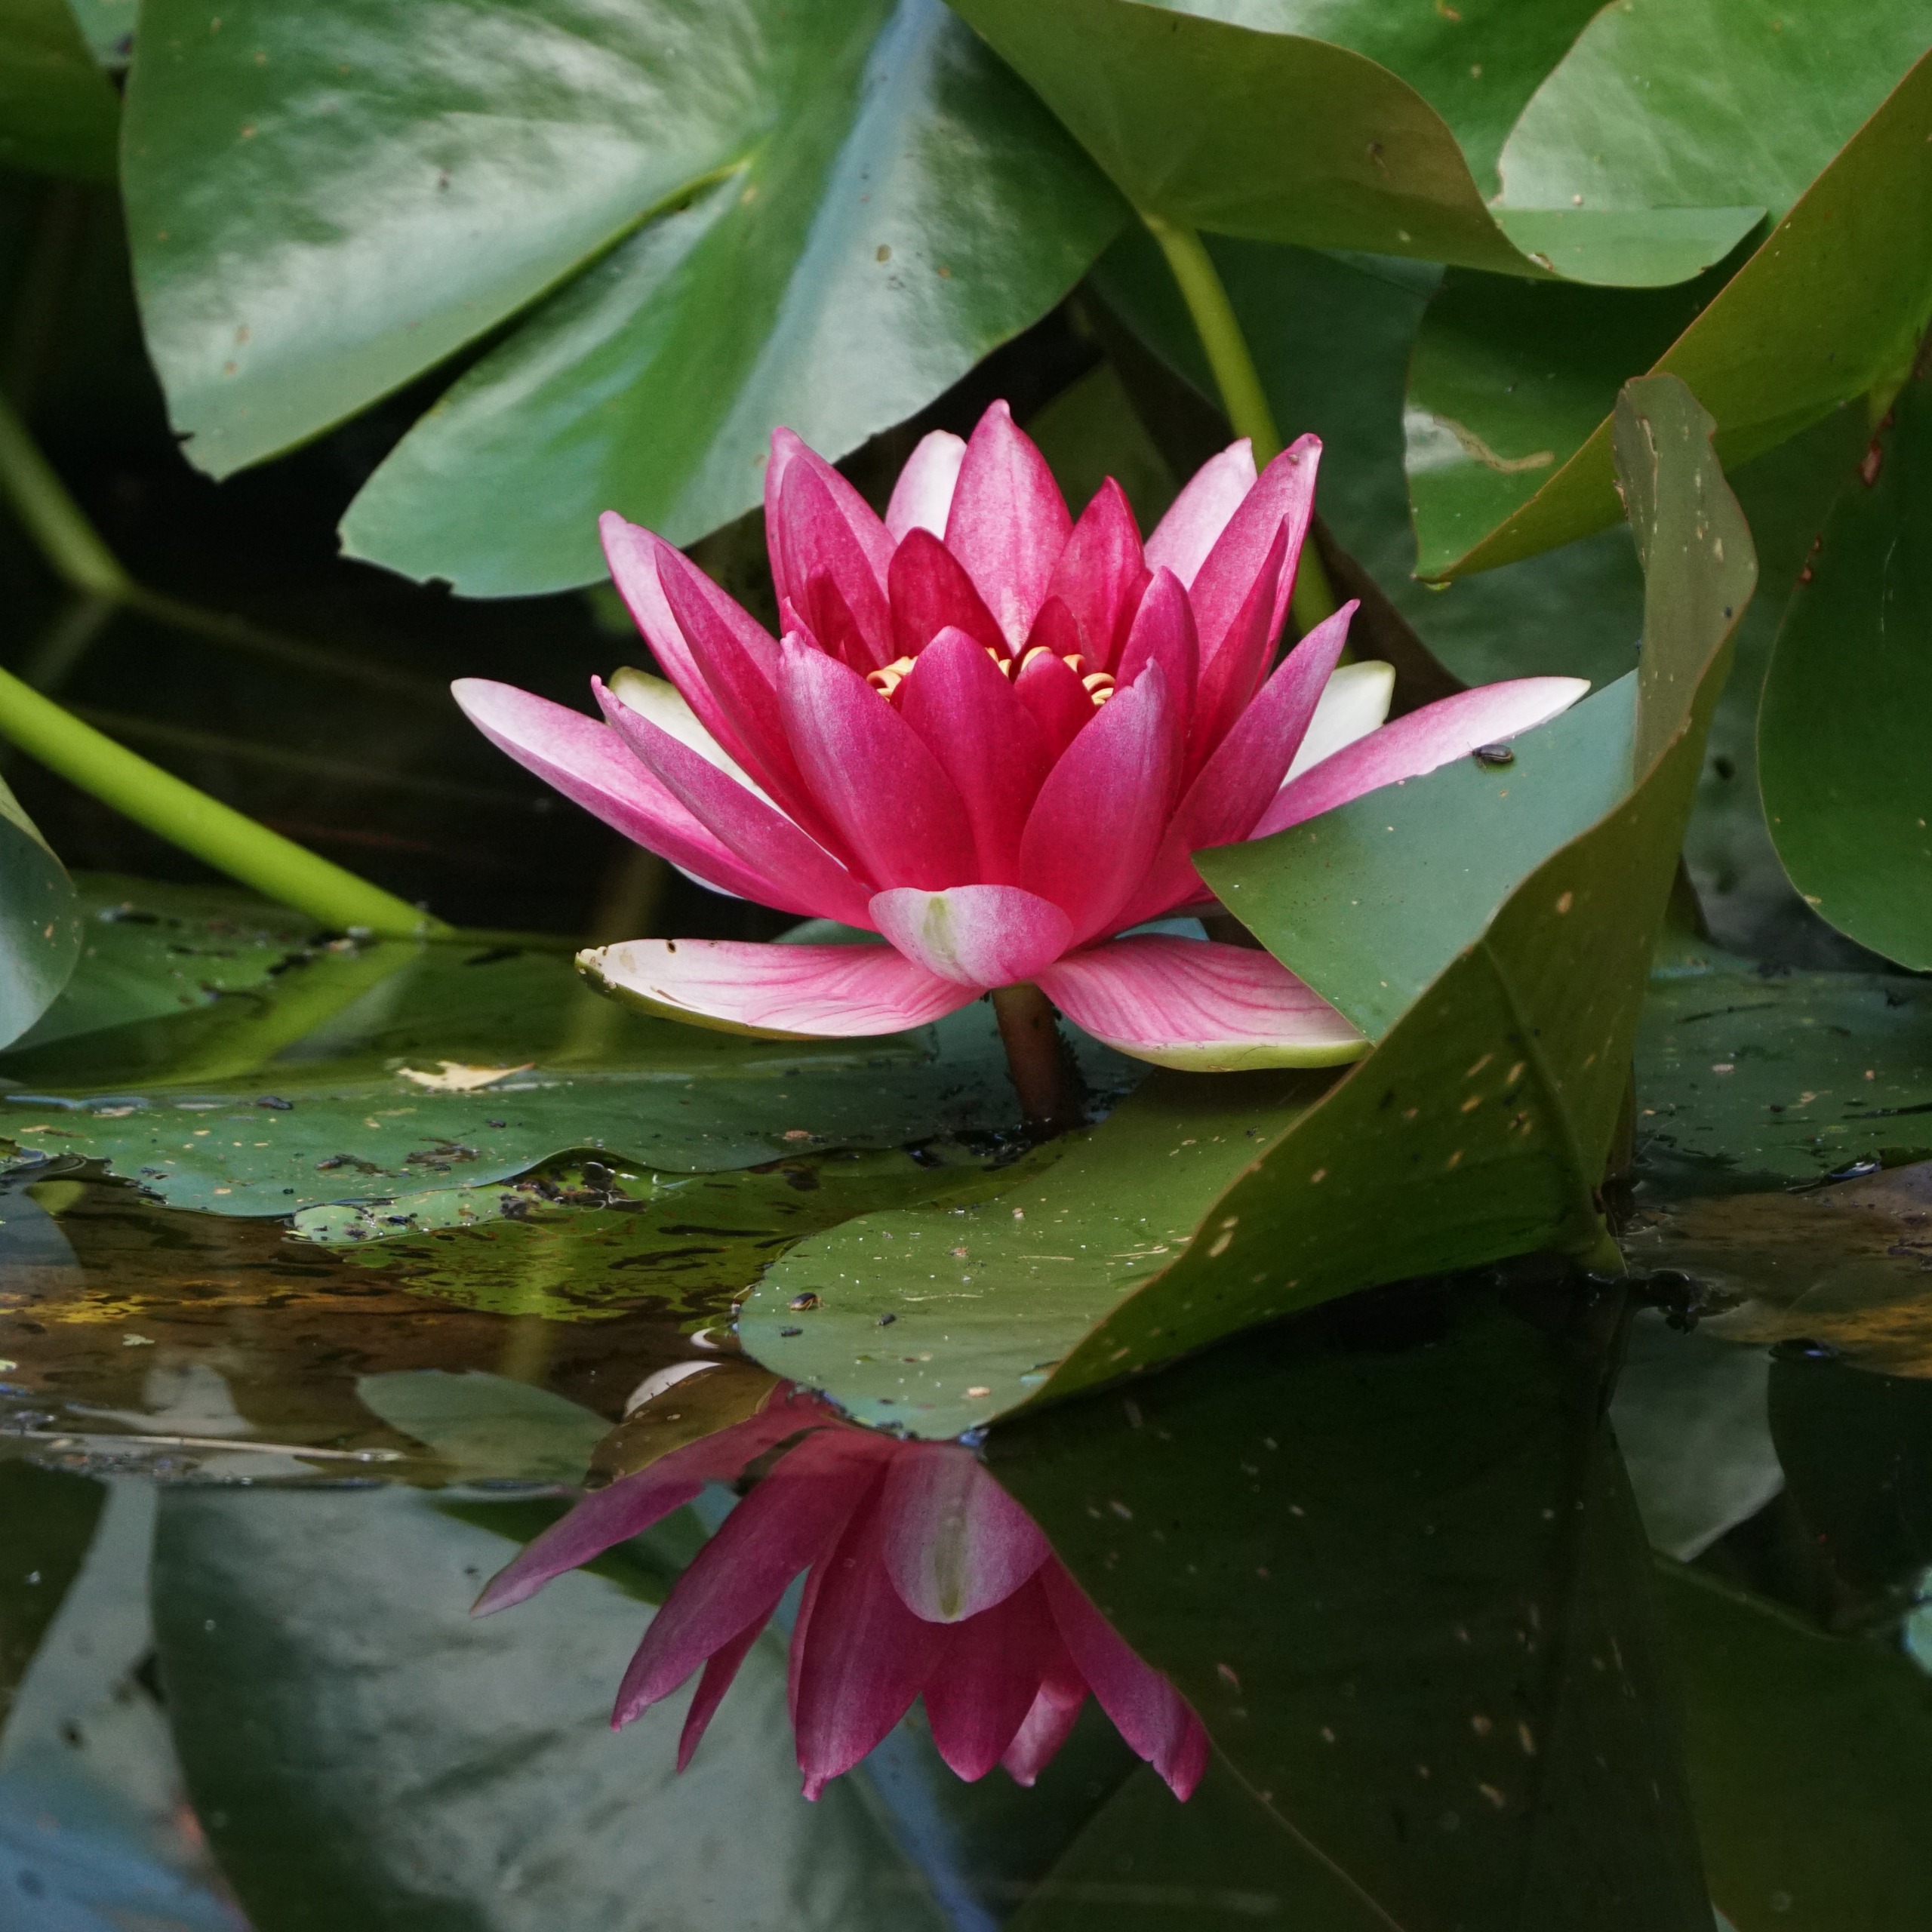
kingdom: Plantae
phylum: Tracheophyta
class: Magnoliopsida
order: Nymphaeales
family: Nymphaeaceae
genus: Nuphar
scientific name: Nuphar rubrodisca
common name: Hybrid-nøkkerose
